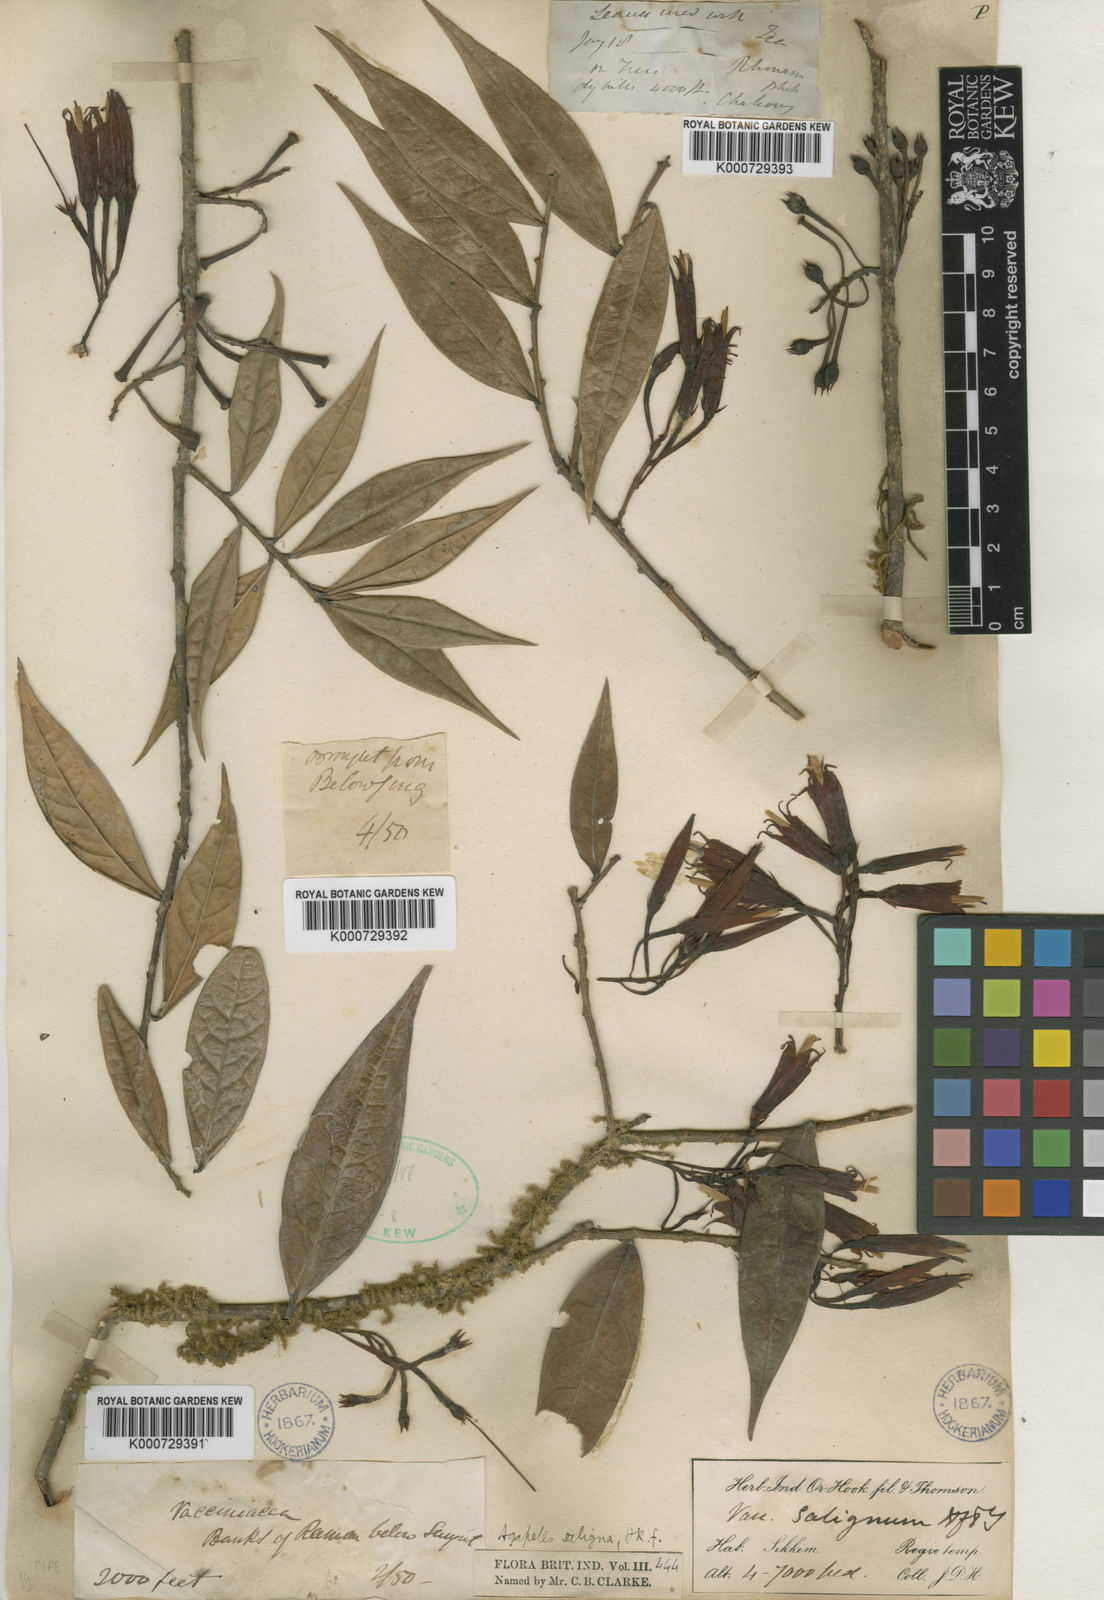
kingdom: Plantae
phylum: Tracheophyta
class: Magnoliopsida
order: Ericales
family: Ericaceae
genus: Agapetes
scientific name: Agapetes saligna
